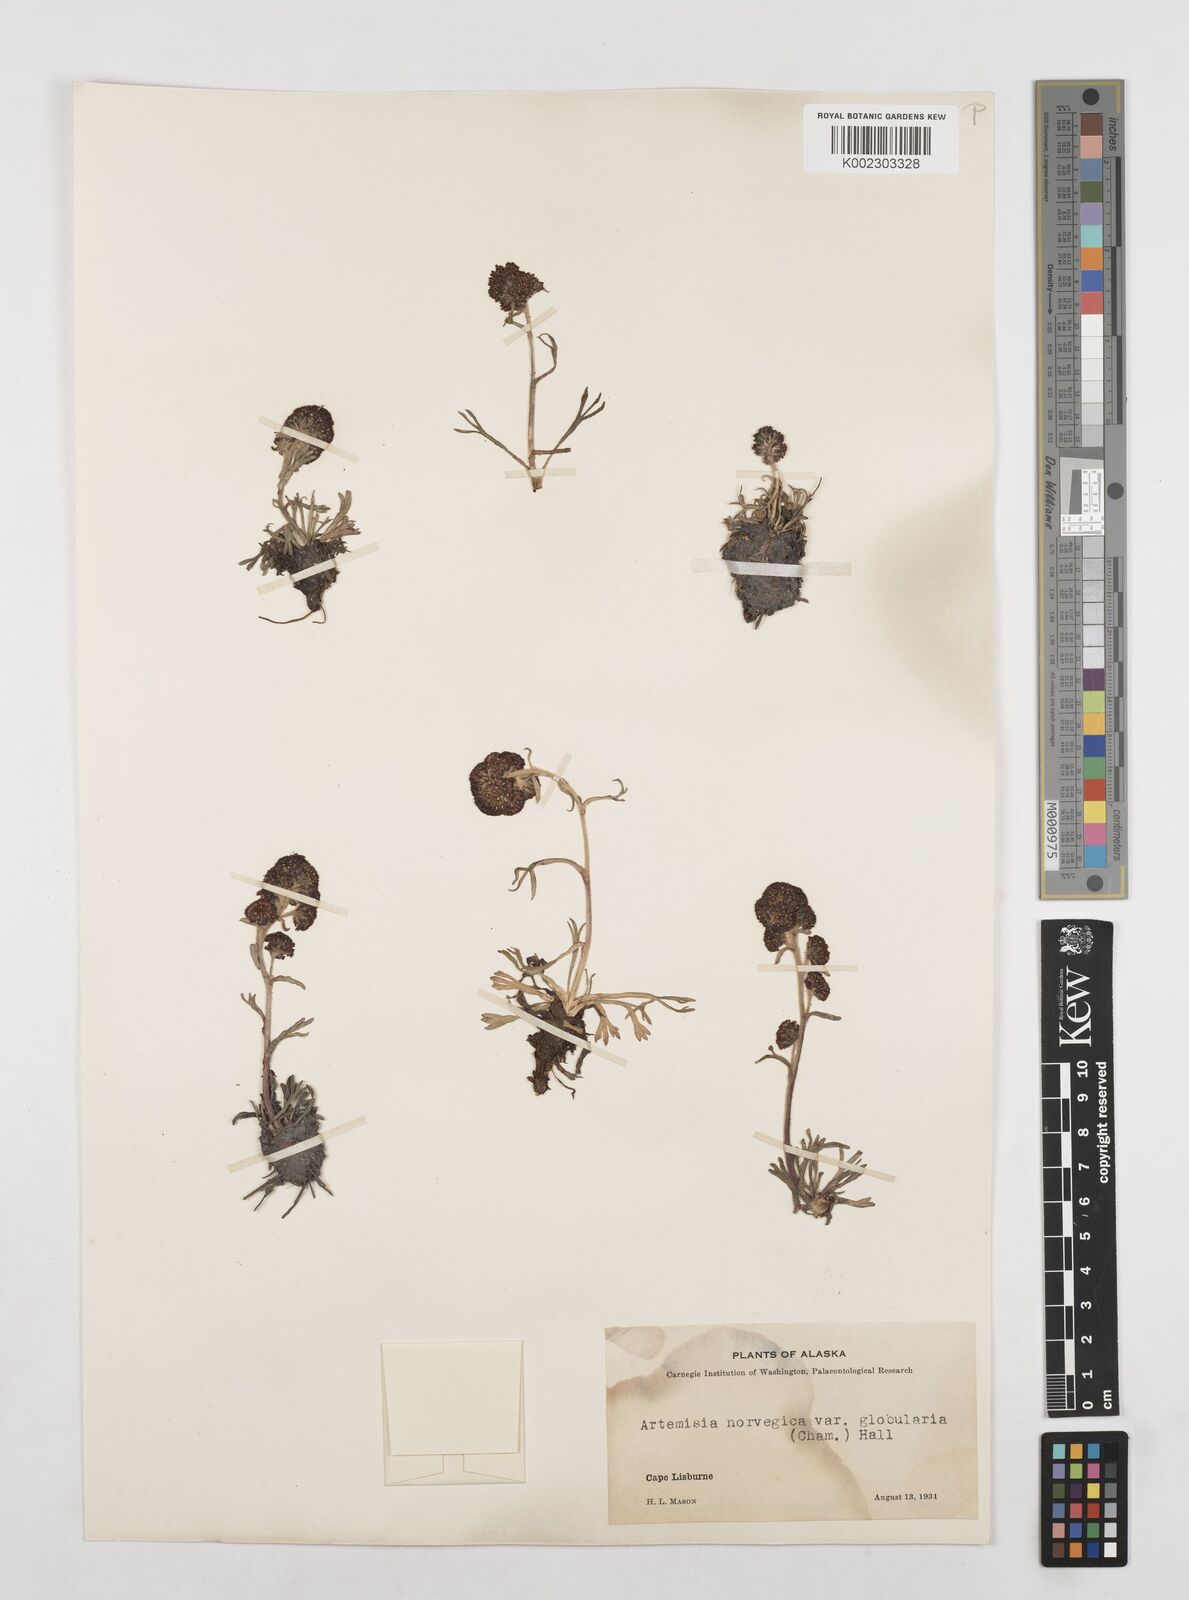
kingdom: Plantae
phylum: Tracheophyta
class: Magnoliopsida
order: Asterales
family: Asteraceae
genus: Artemisia
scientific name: Artemisia globularia
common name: Purple wormwood
